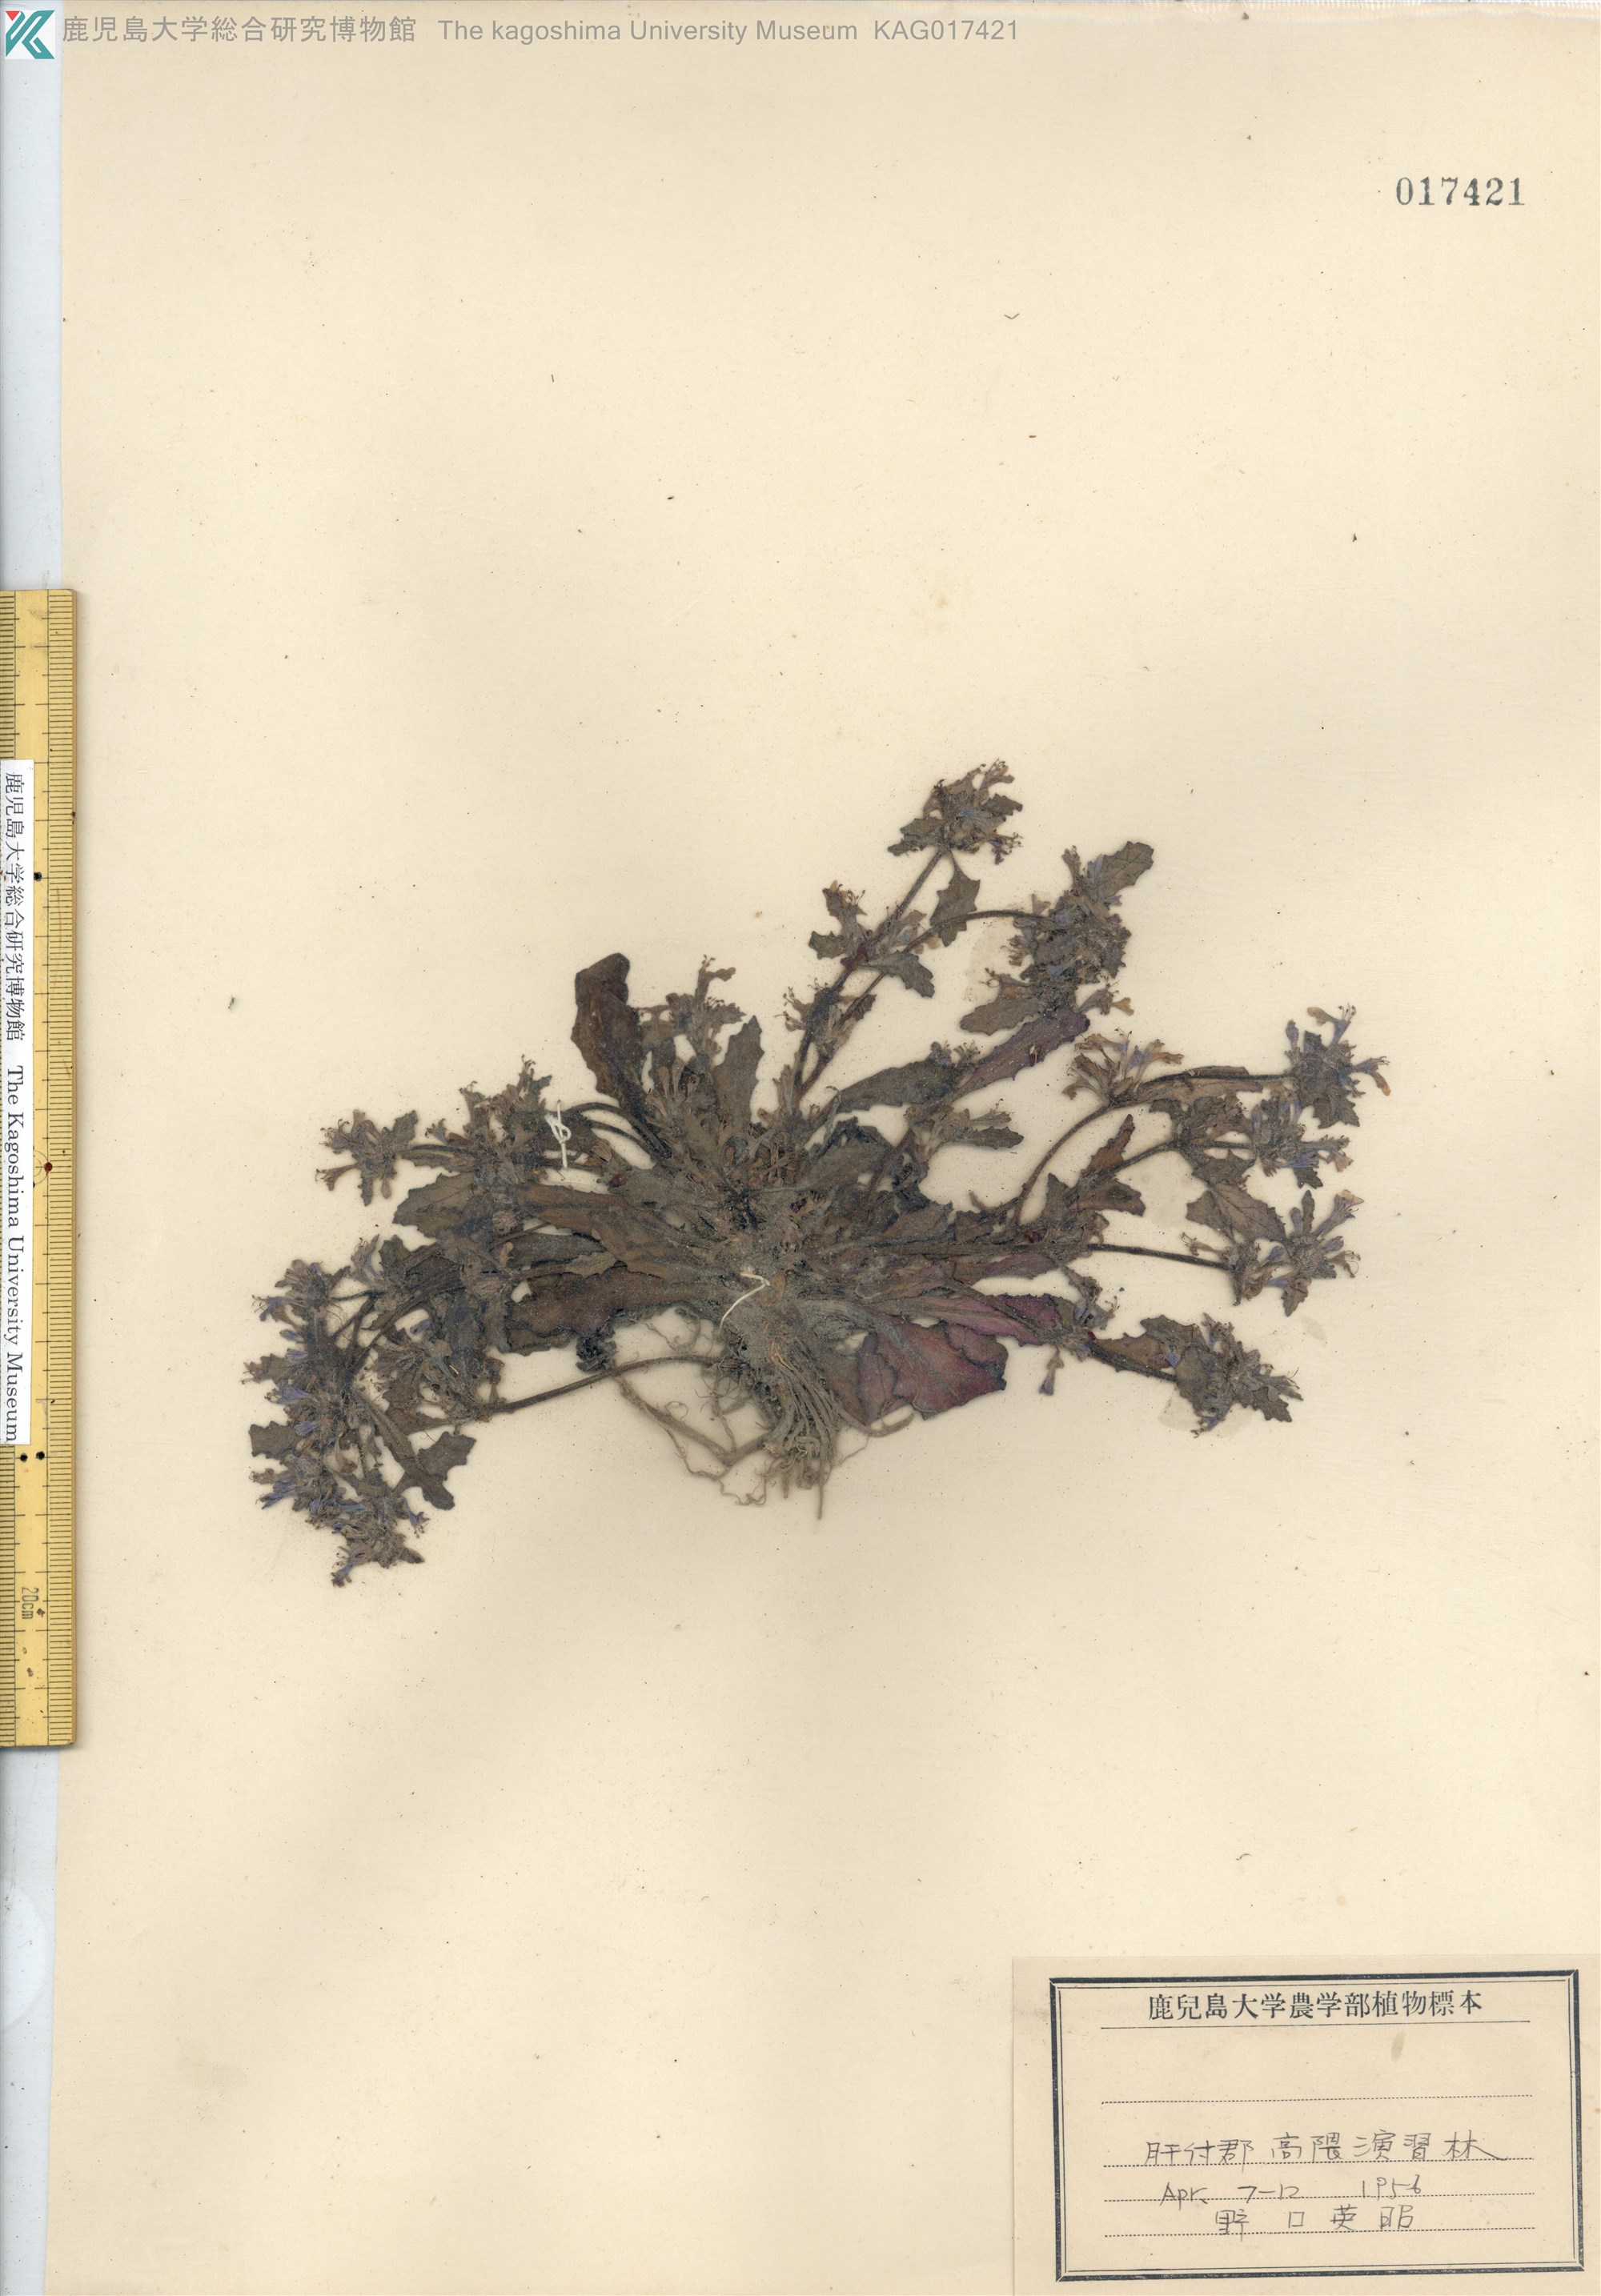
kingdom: Plantae
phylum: Tracheophyta
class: Magnoliopsida
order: Lamiales
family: Lamiaceae
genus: Ajuga
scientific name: Ajuga decumbens
